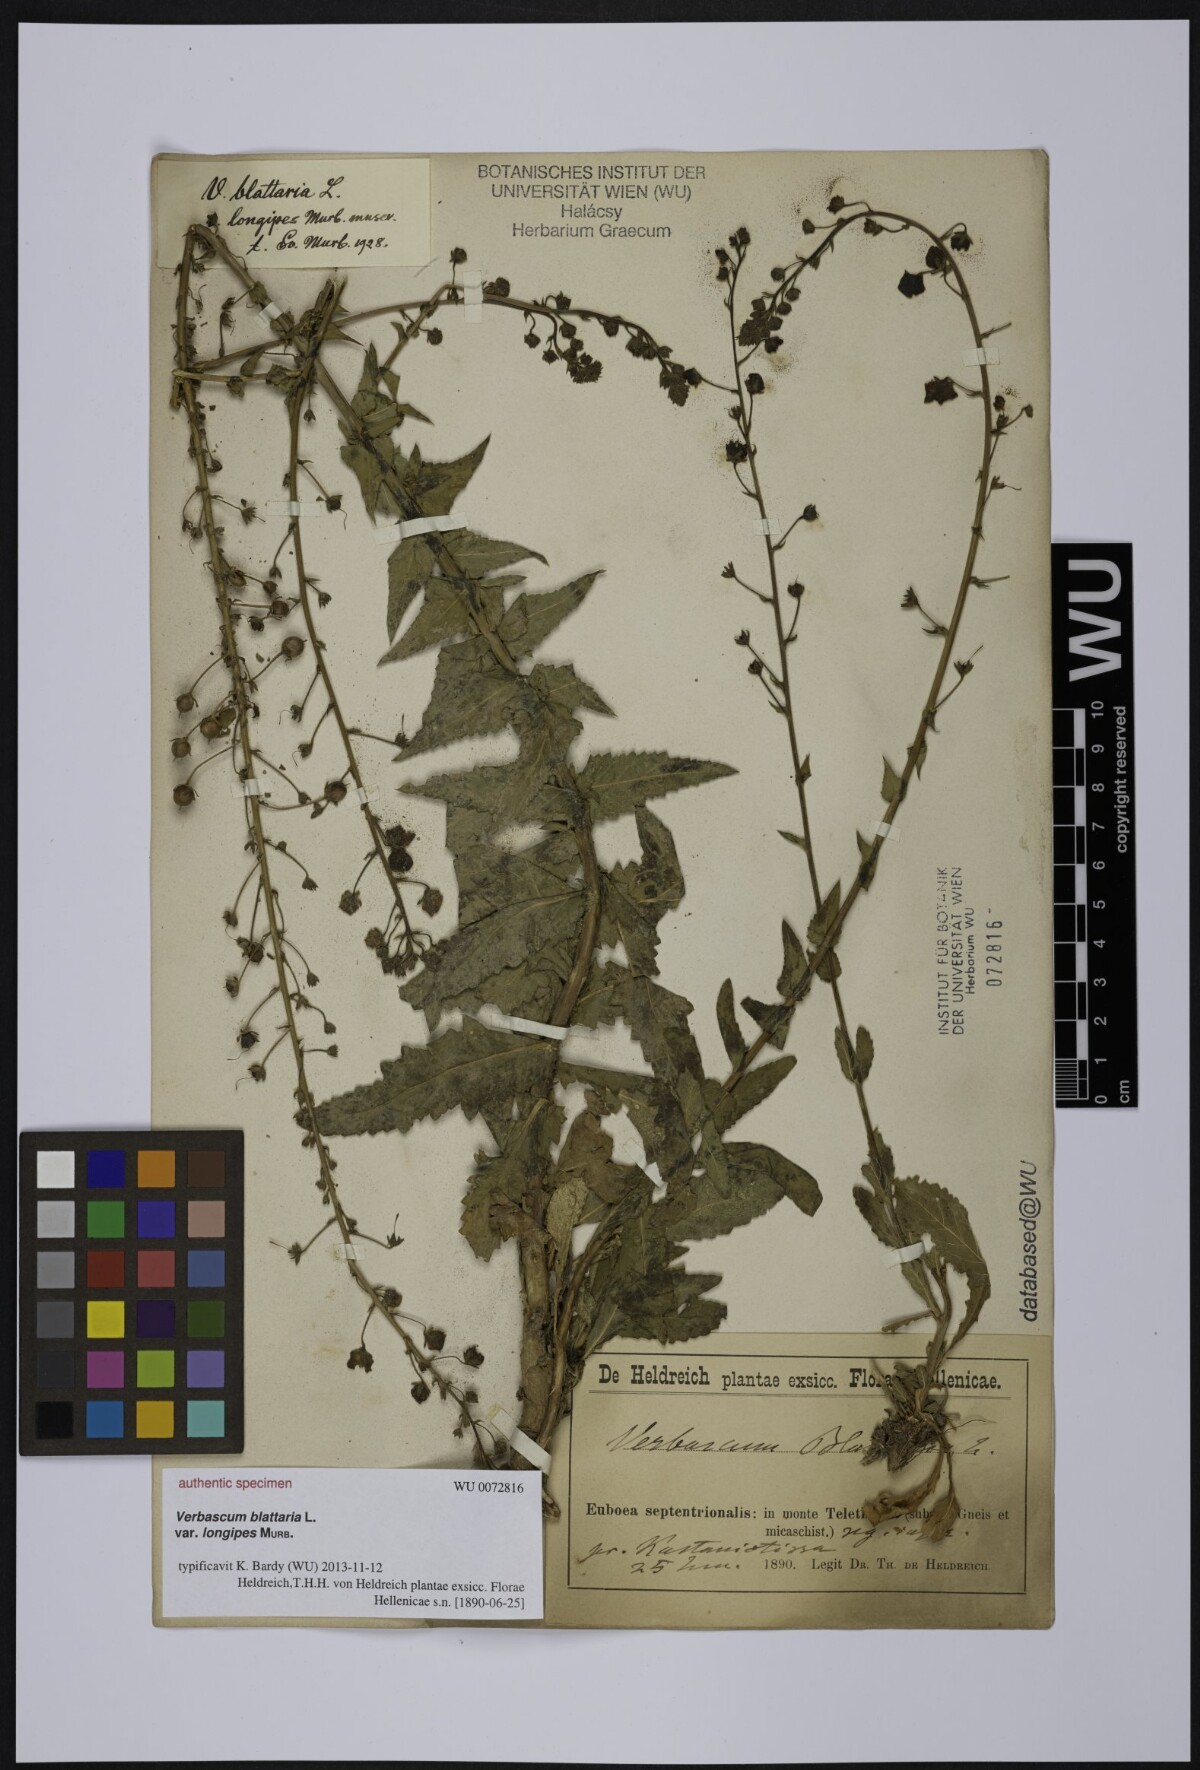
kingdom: Plantae
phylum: Tracheophyta
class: Magnoliopsida
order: Lamiales
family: Scrophulariaceae
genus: Verbascum
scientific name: Verbascum blattaria
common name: Moth mullein
